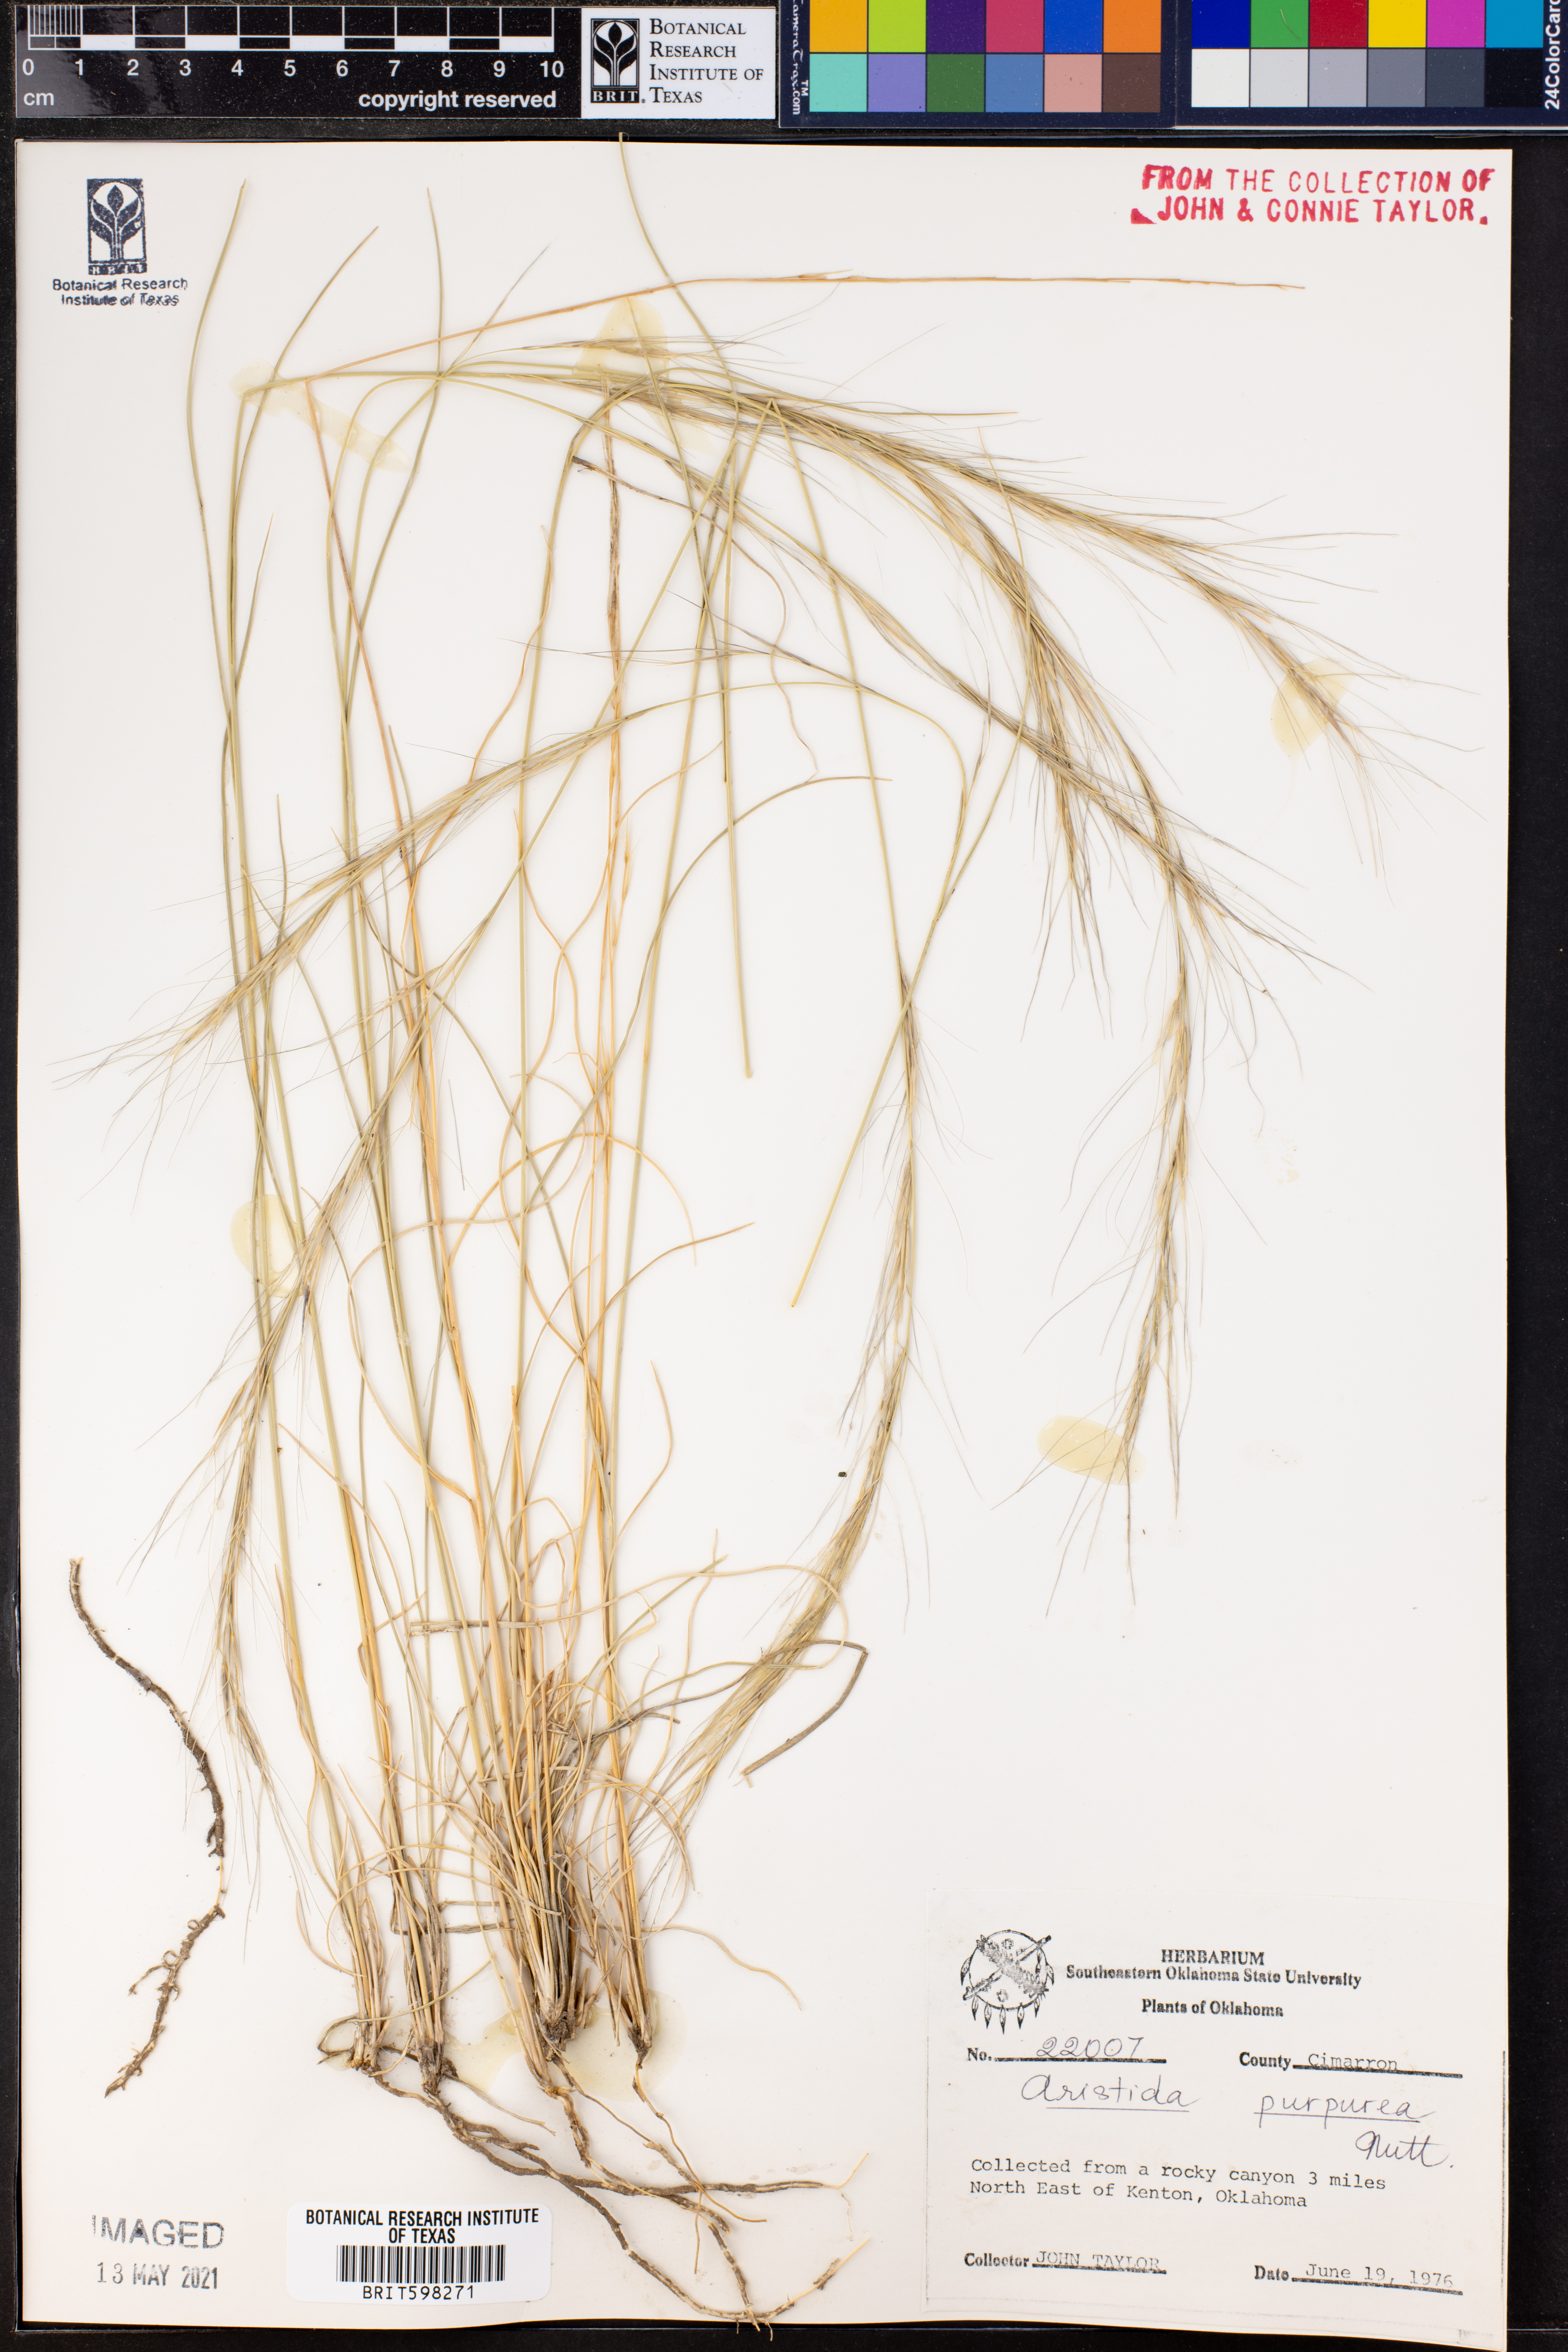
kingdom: Plantae
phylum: Tracheophyta
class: Liliopsida
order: Poales
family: Poaceae
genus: Aristida
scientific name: Aristida purpurea
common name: Purple threeawn
